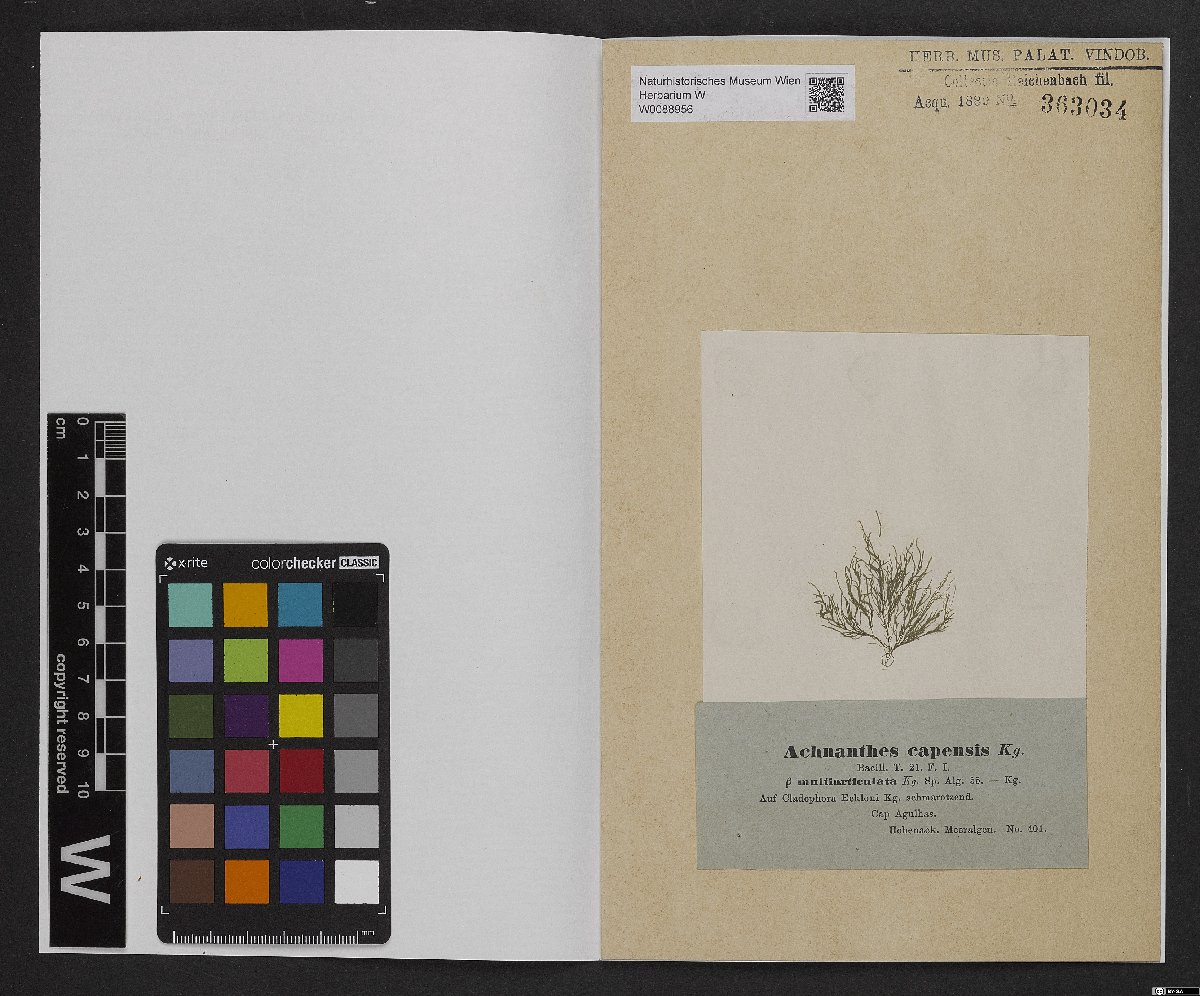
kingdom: Chromista
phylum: Ochrophyta
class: Bacillariophyceae
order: Achnanthales
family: Achnanthaceae
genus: Achnanthes
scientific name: Achnanthes capensis
